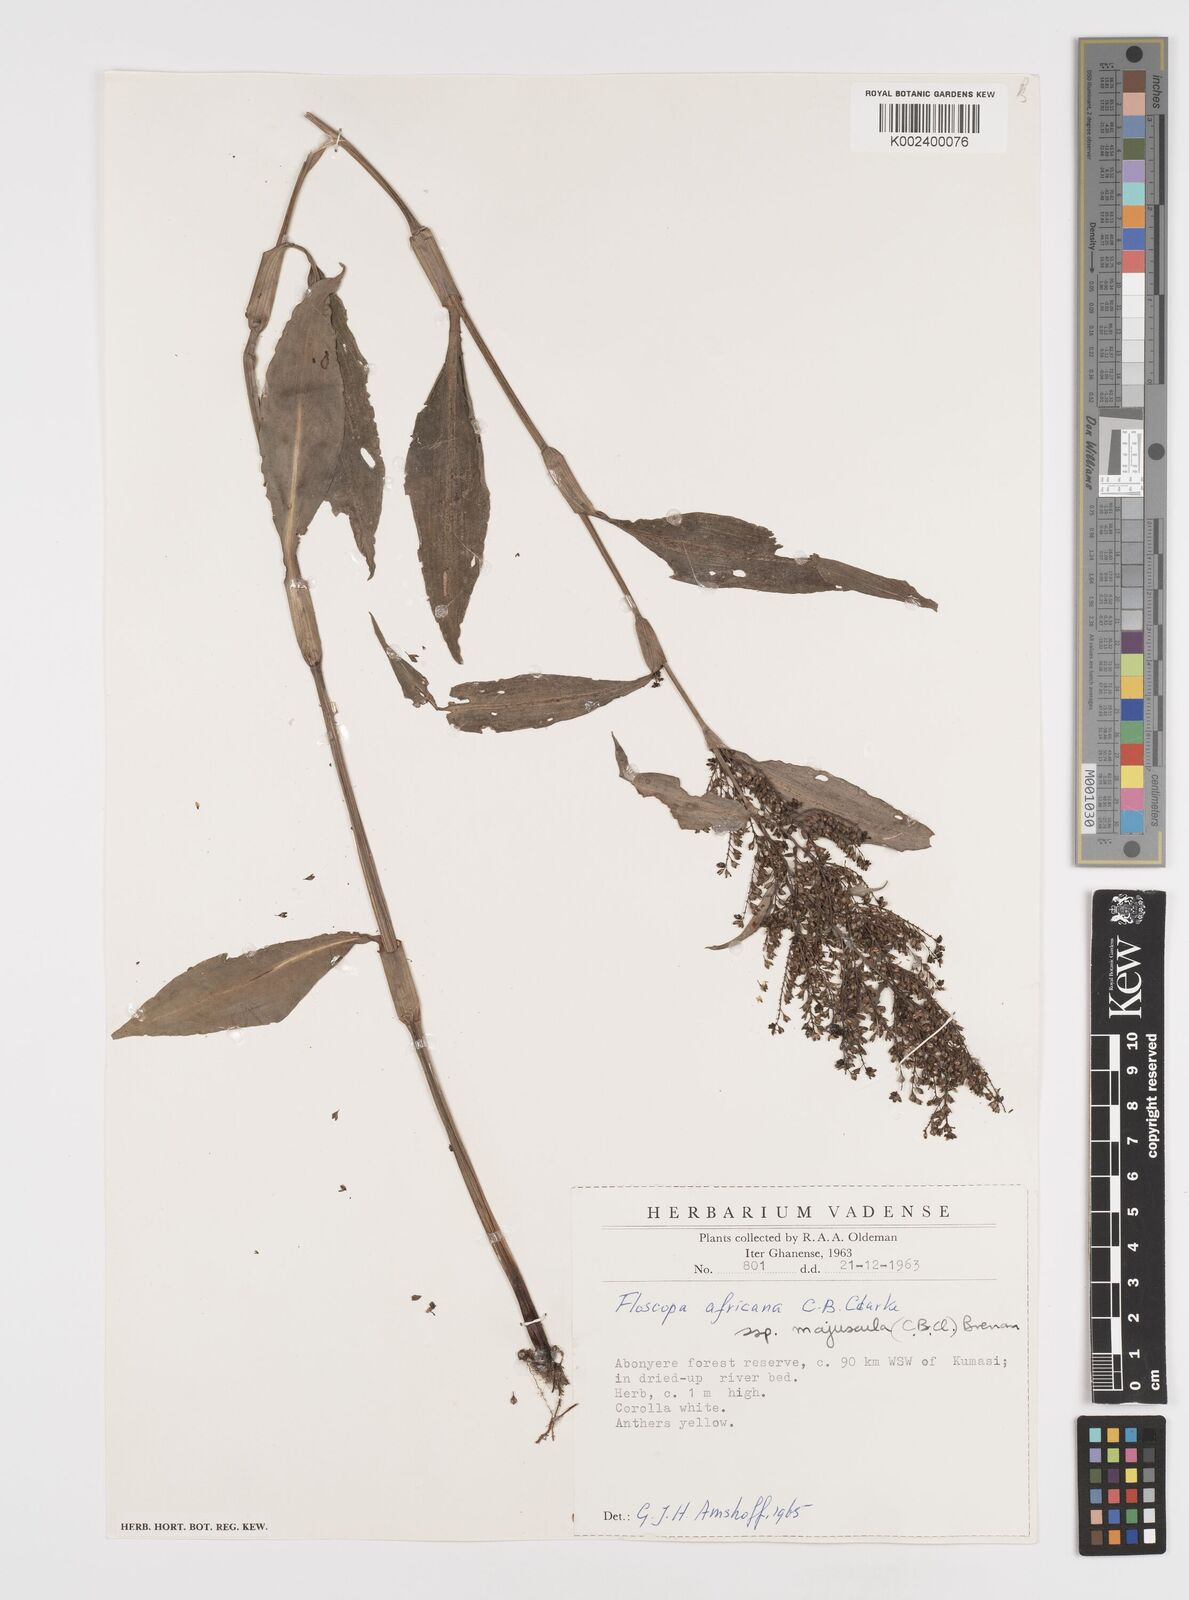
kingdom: Plantae
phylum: Tracheophyta
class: Liliopsida
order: Commelinales
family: Commelinaceae
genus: Floscopa
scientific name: Floscopa africana
